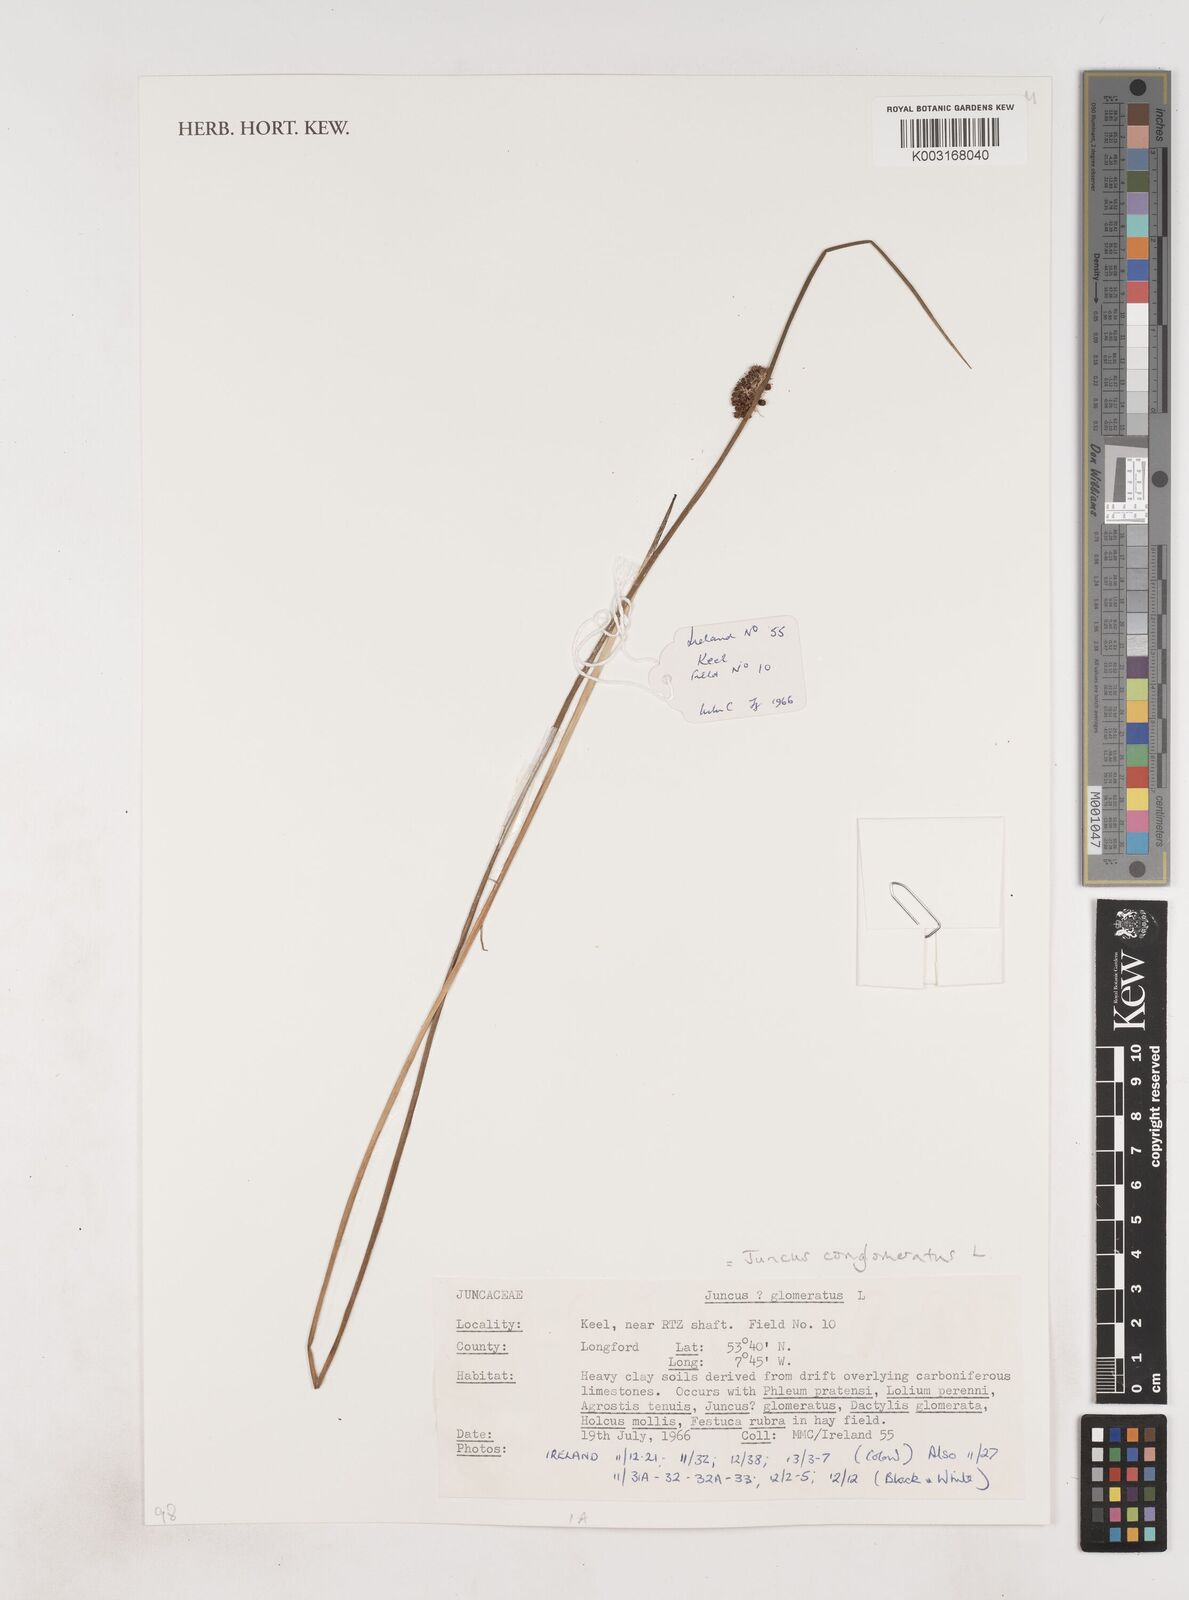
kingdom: Plantae
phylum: Tracheophyta
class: Liliopsida
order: Poales
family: Juncaceae
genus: Juncus
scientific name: Juncus conglomeratus
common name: Compact rush
